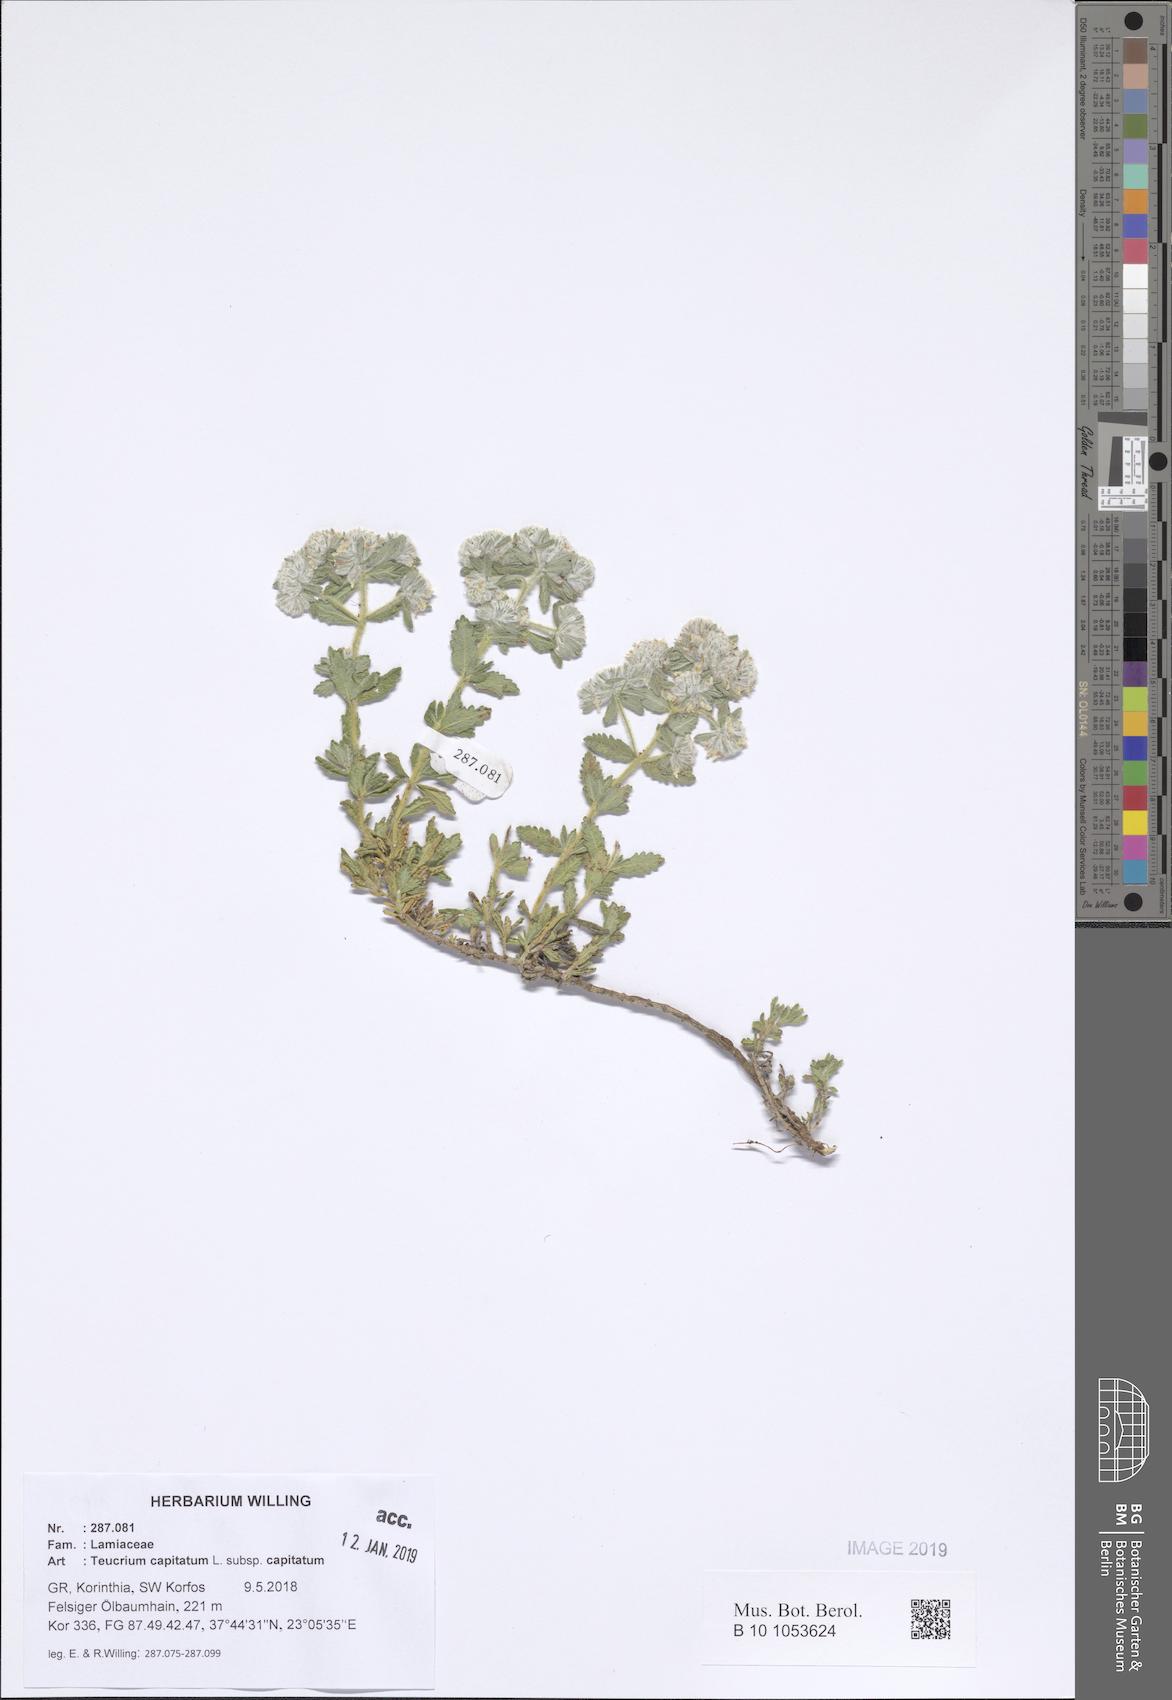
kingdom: Plantae
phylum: Tracheophyta
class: Magnoliopsida
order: Lamiales
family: Lamiaceae
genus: Teucrium
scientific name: Teucrium capitatum
